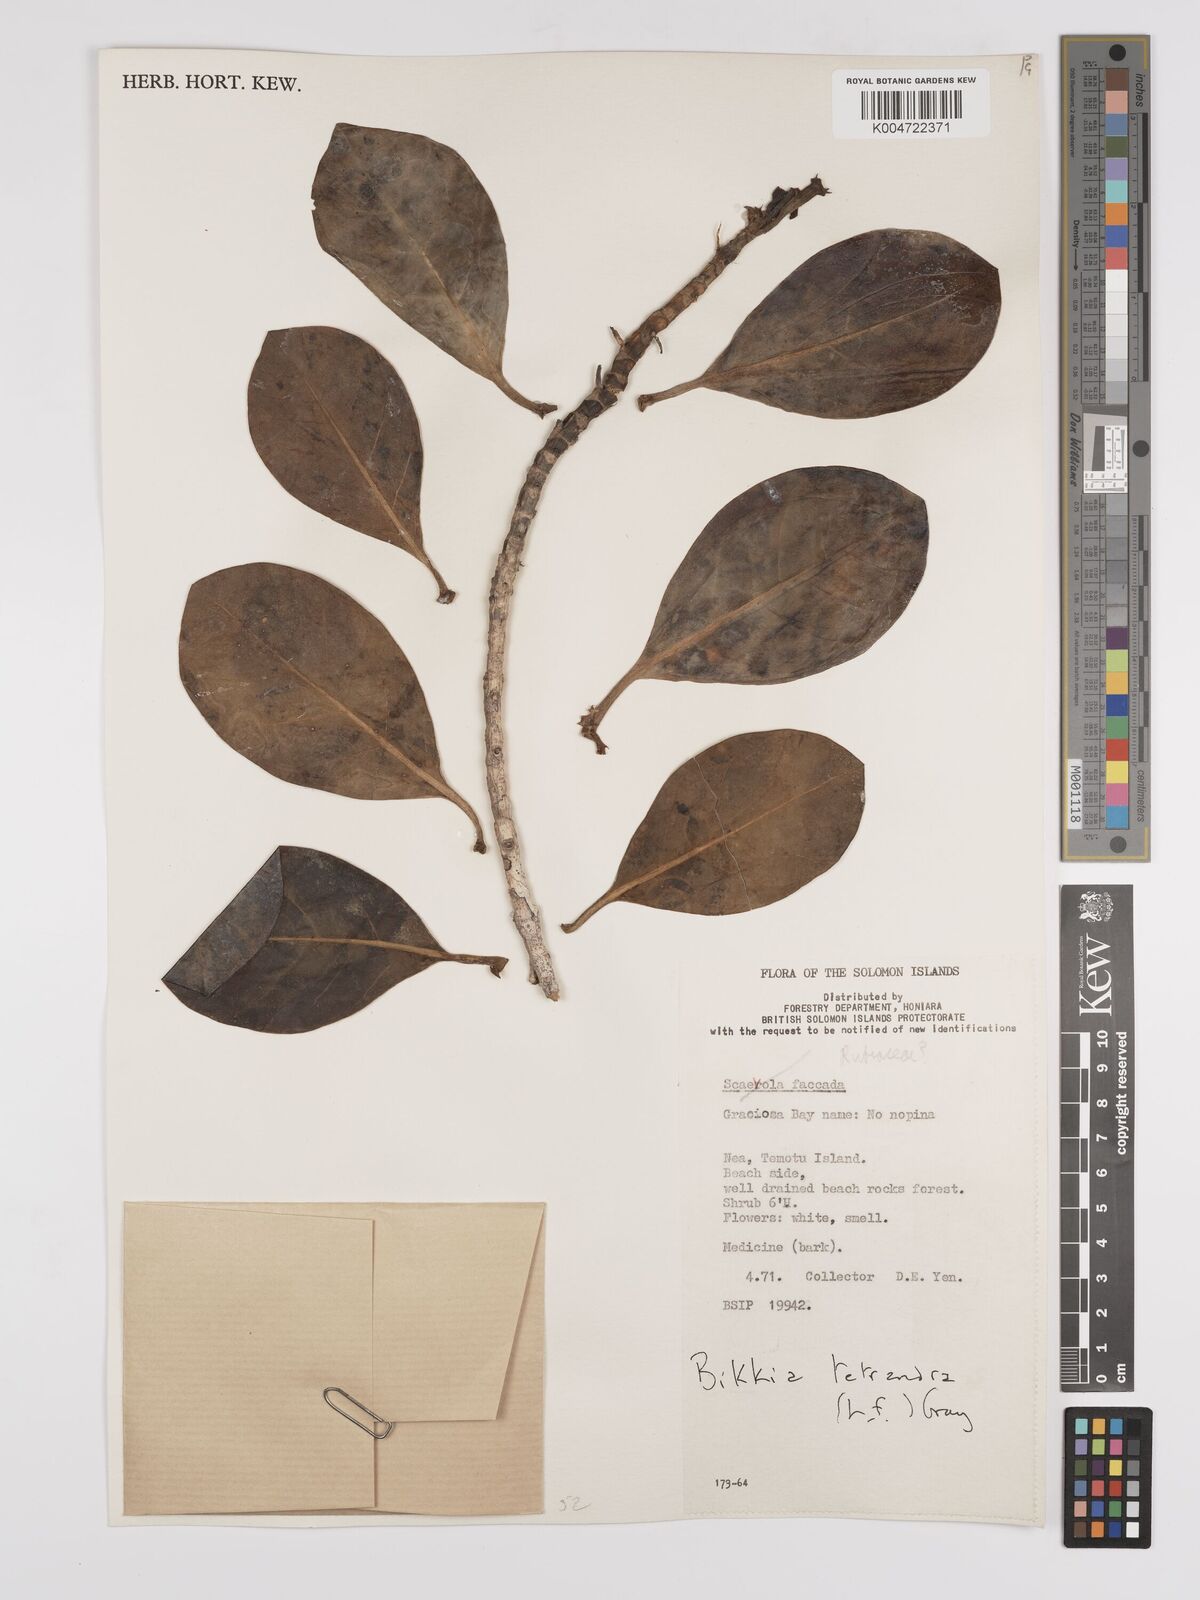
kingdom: Plantae
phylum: Tracheophyta
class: Magnoliopsida
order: Gentianales
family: Rubiaceae
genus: Bikkia
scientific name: Bikkia
